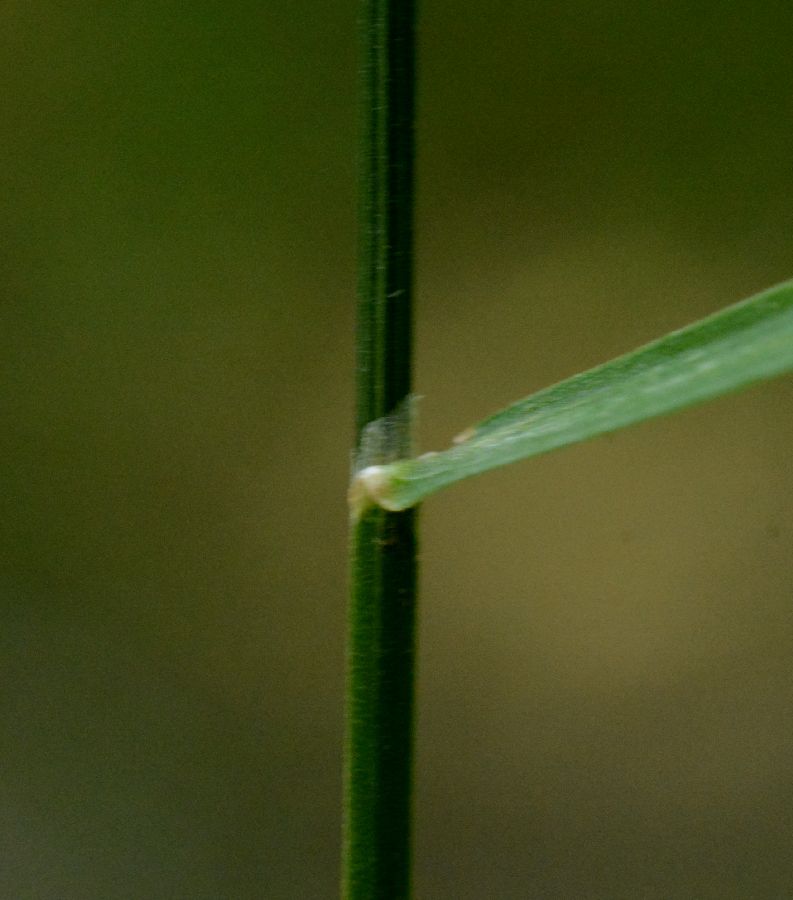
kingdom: Plantae
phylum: Tracheophyta
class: Liliopsida
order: Poales
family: Poaceae
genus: Poa
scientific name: Poa palustris
